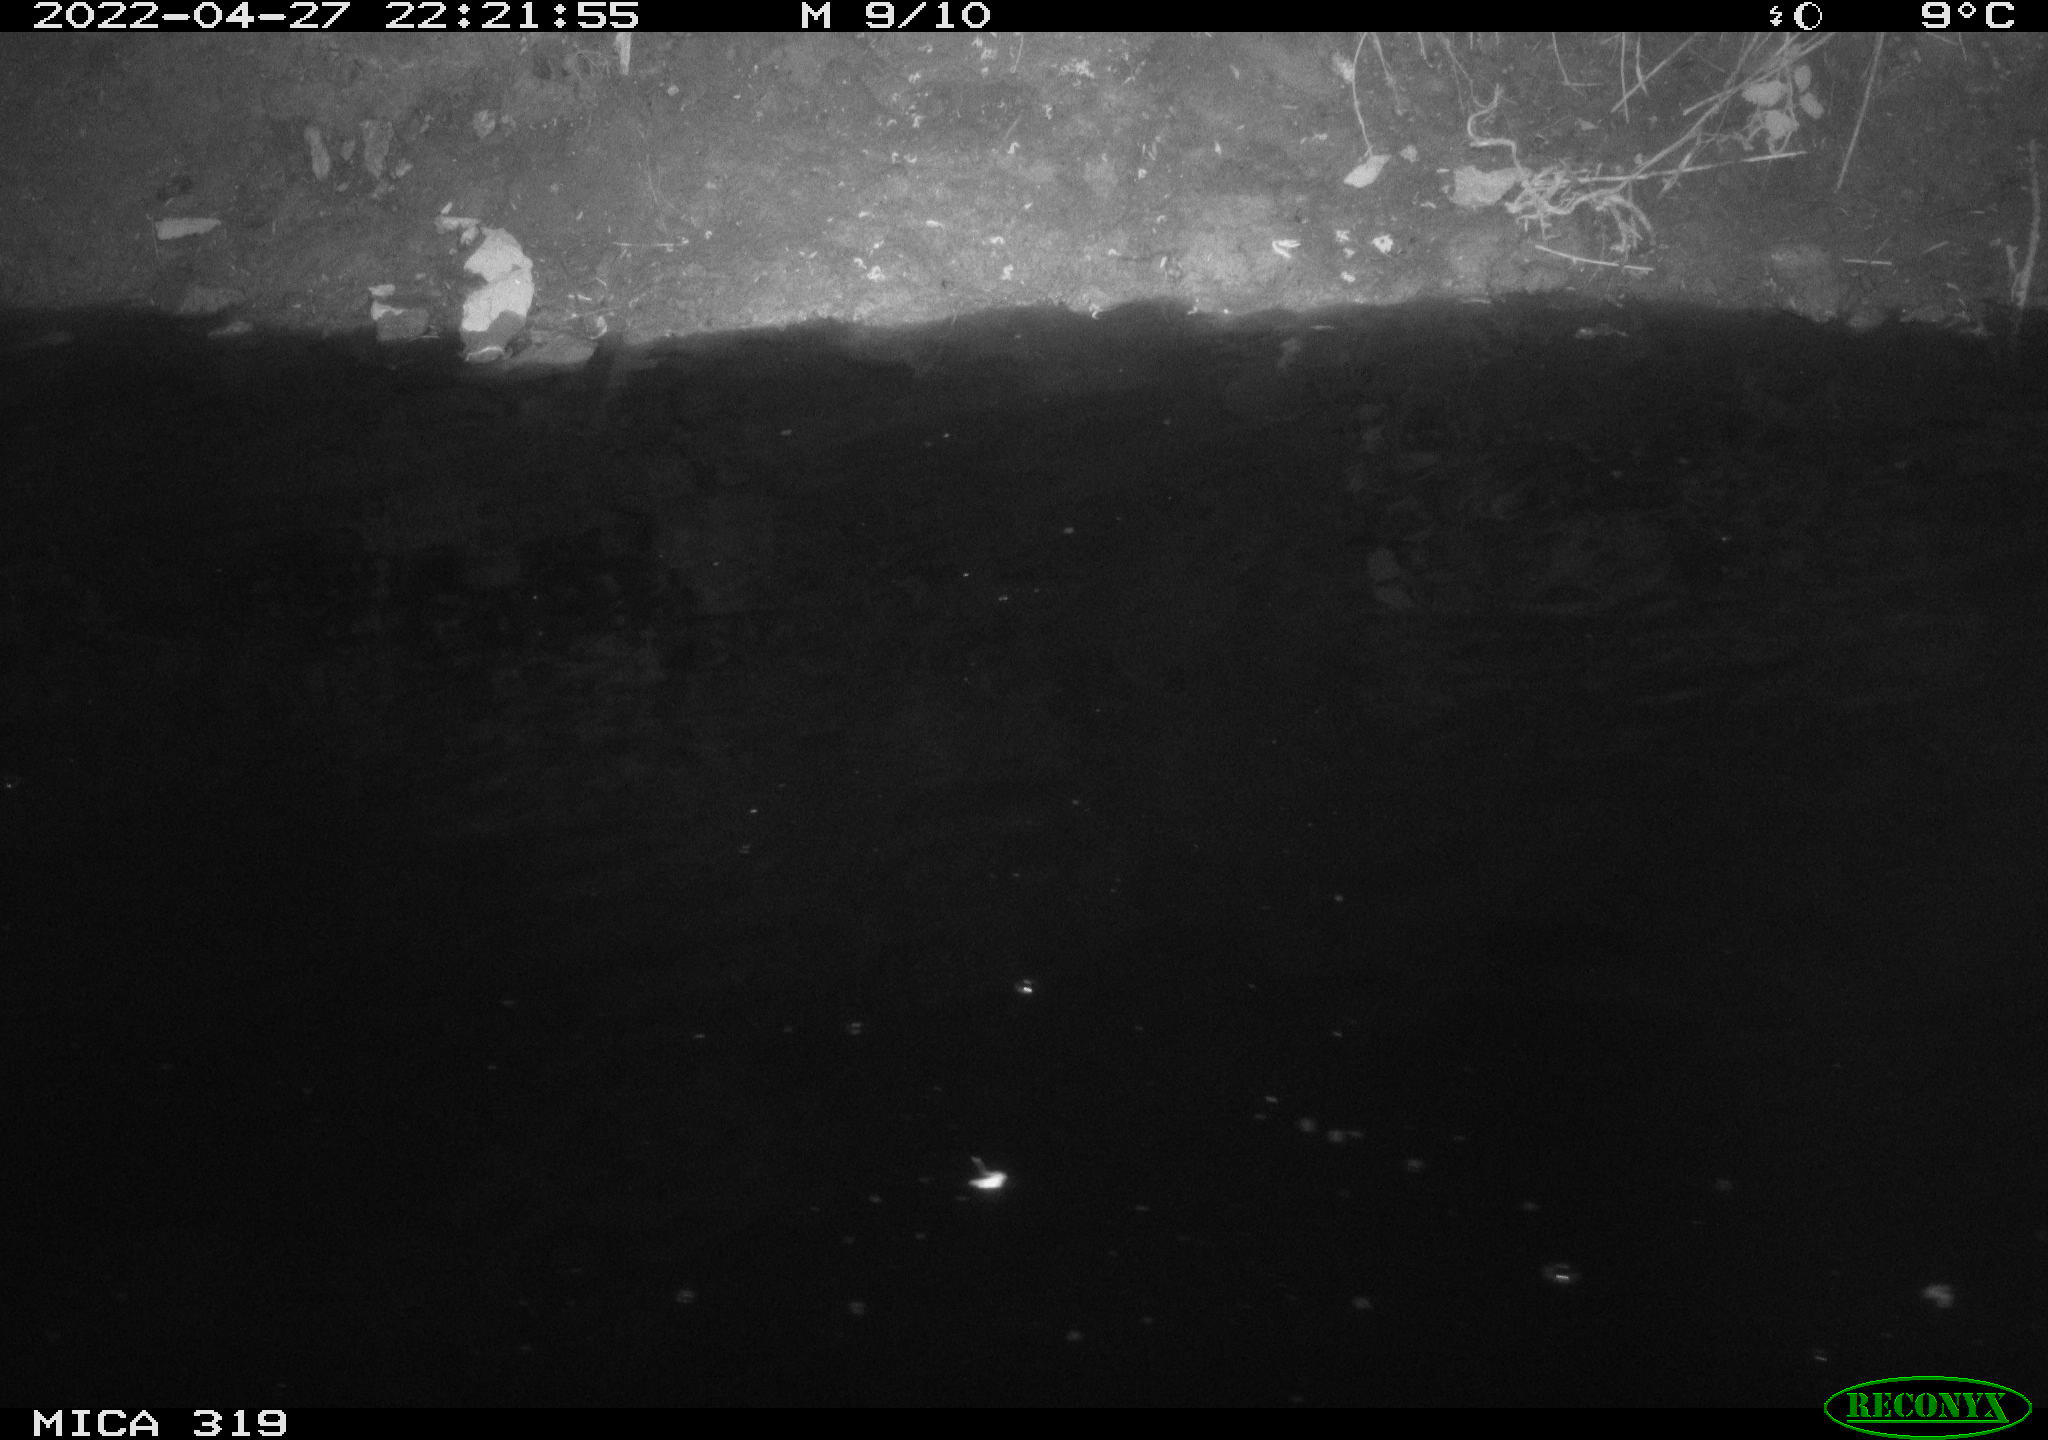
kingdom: Animalia
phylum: Chordata
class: Aves
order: Anseriformes
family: Anatidae
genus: Anas
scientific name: Anas platyrhynchos
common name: Mallard
